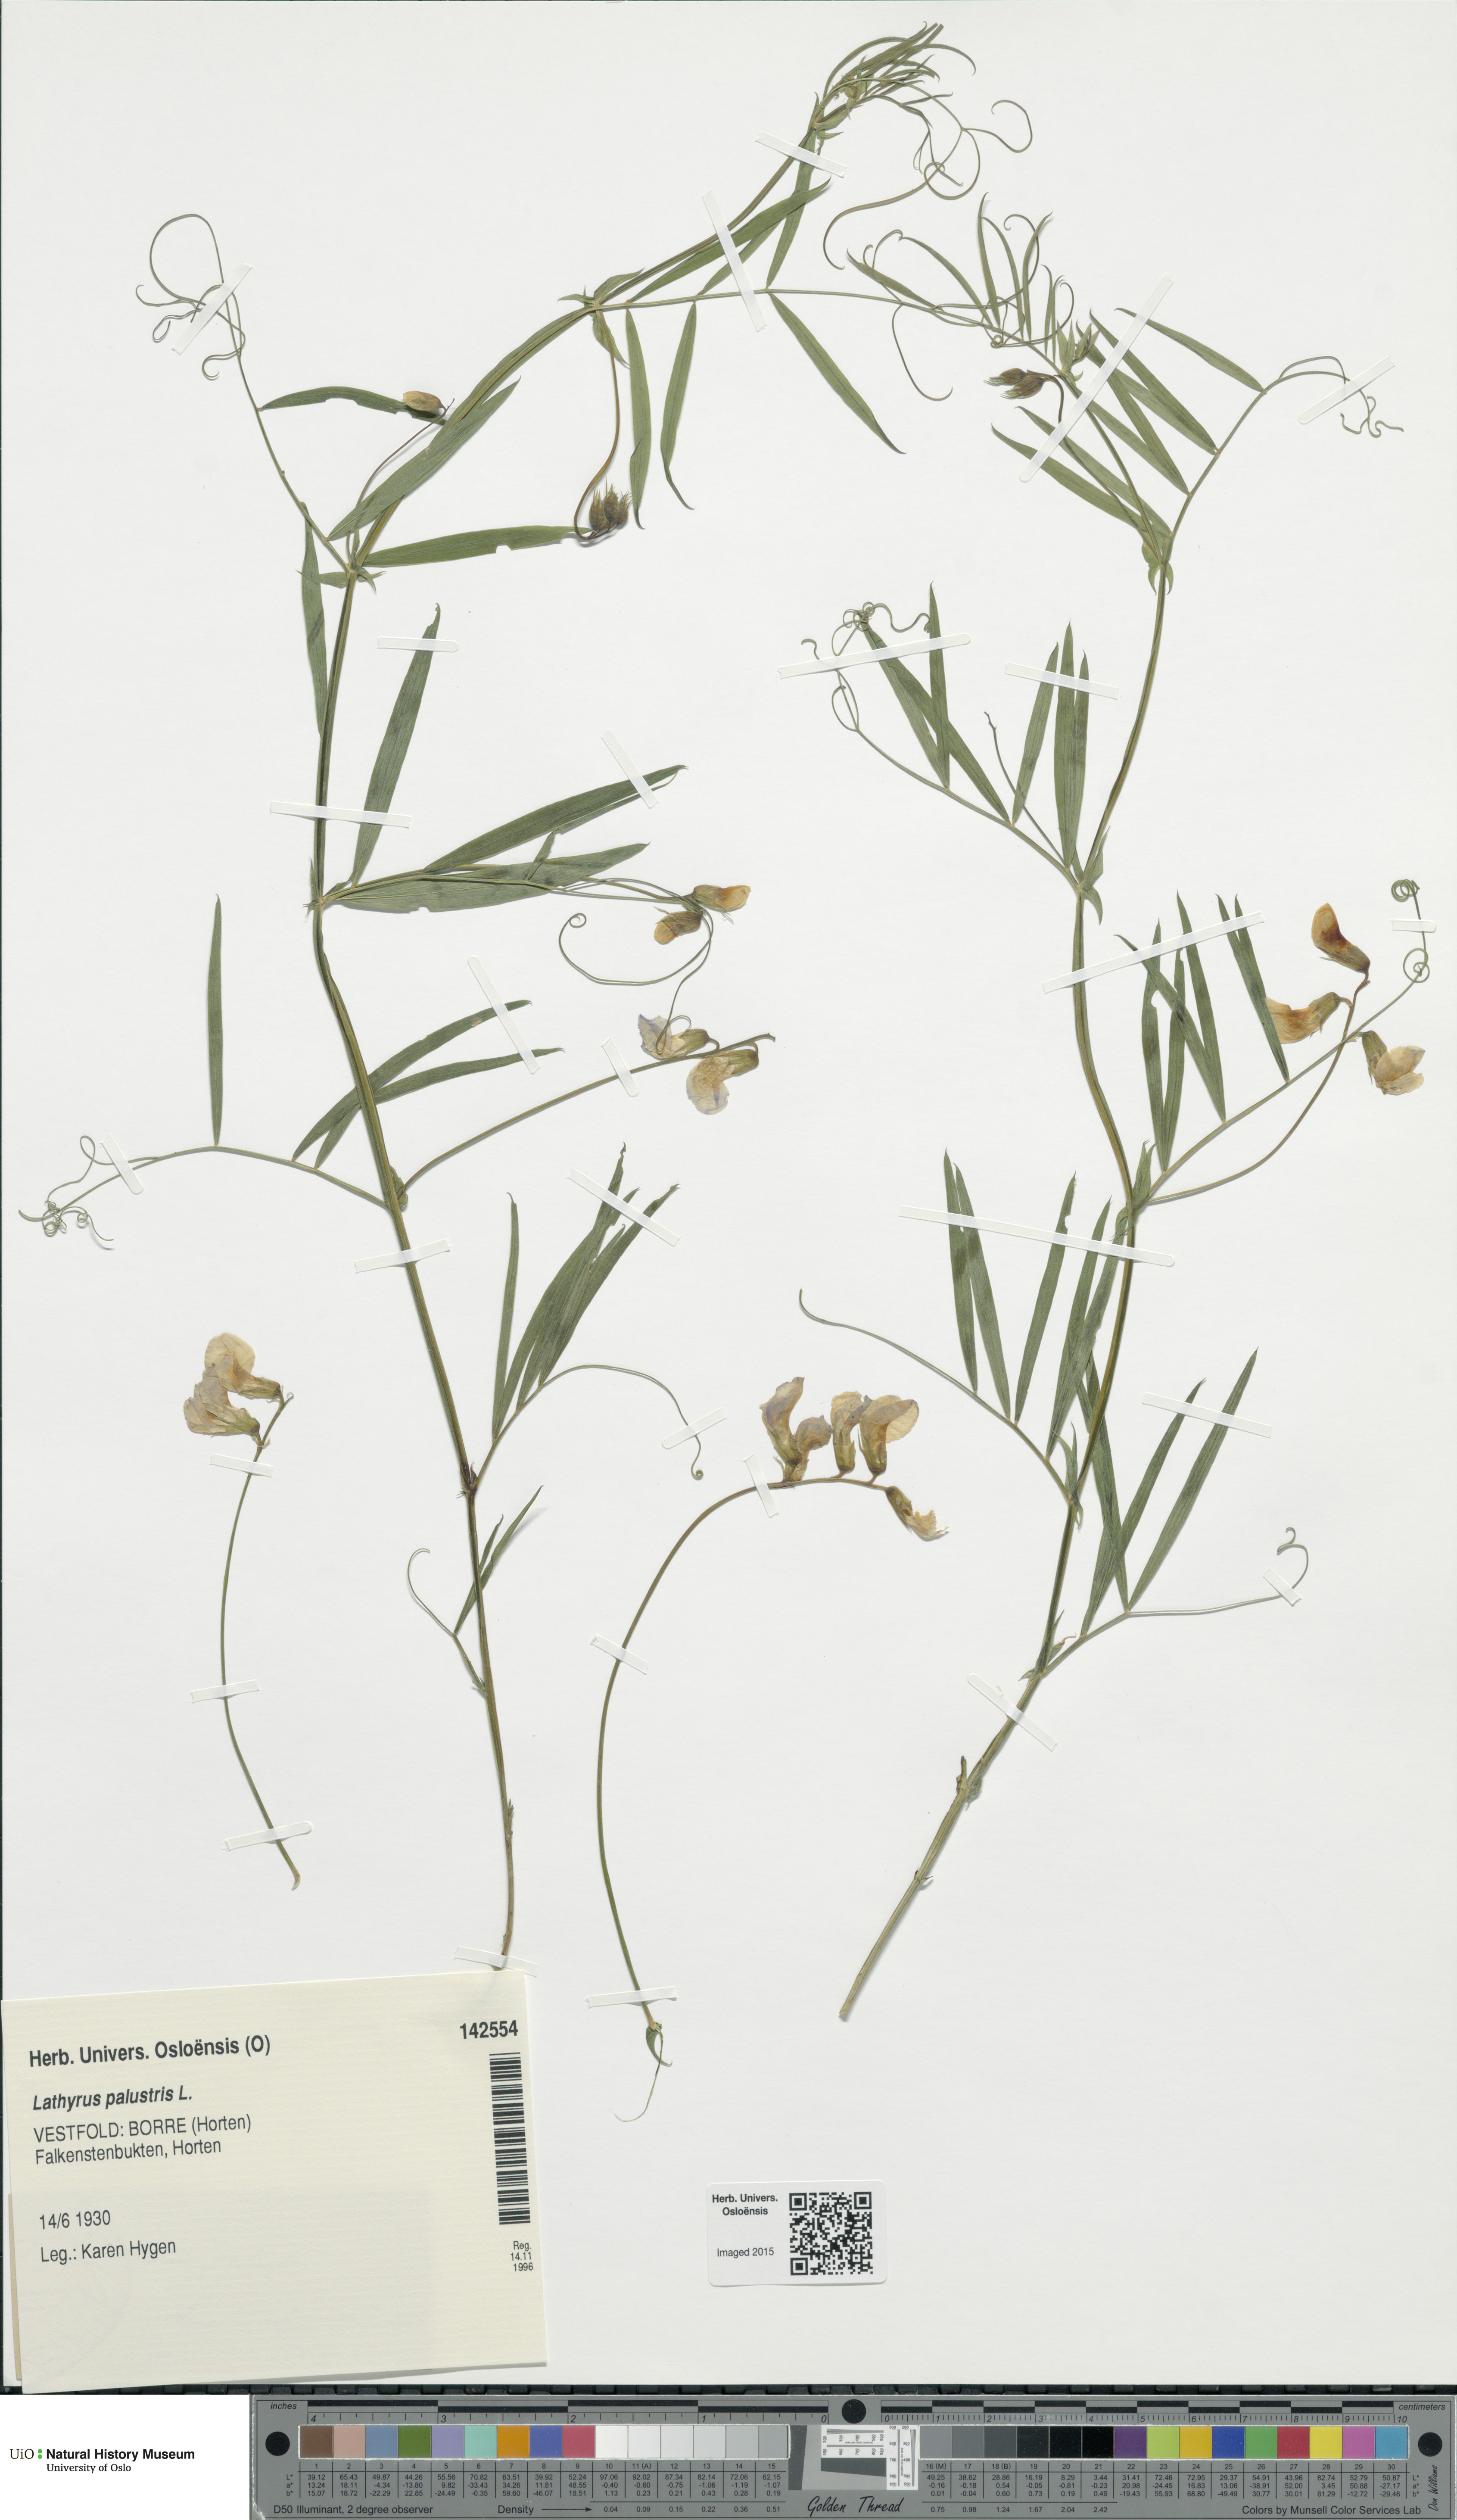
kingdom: Plantae
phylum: Tracheophyta
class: Magnoliopsida
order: Fabales
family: Fabaceae
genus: Lathyrus
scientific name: Lathyrus palustris
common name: Marsh pea
